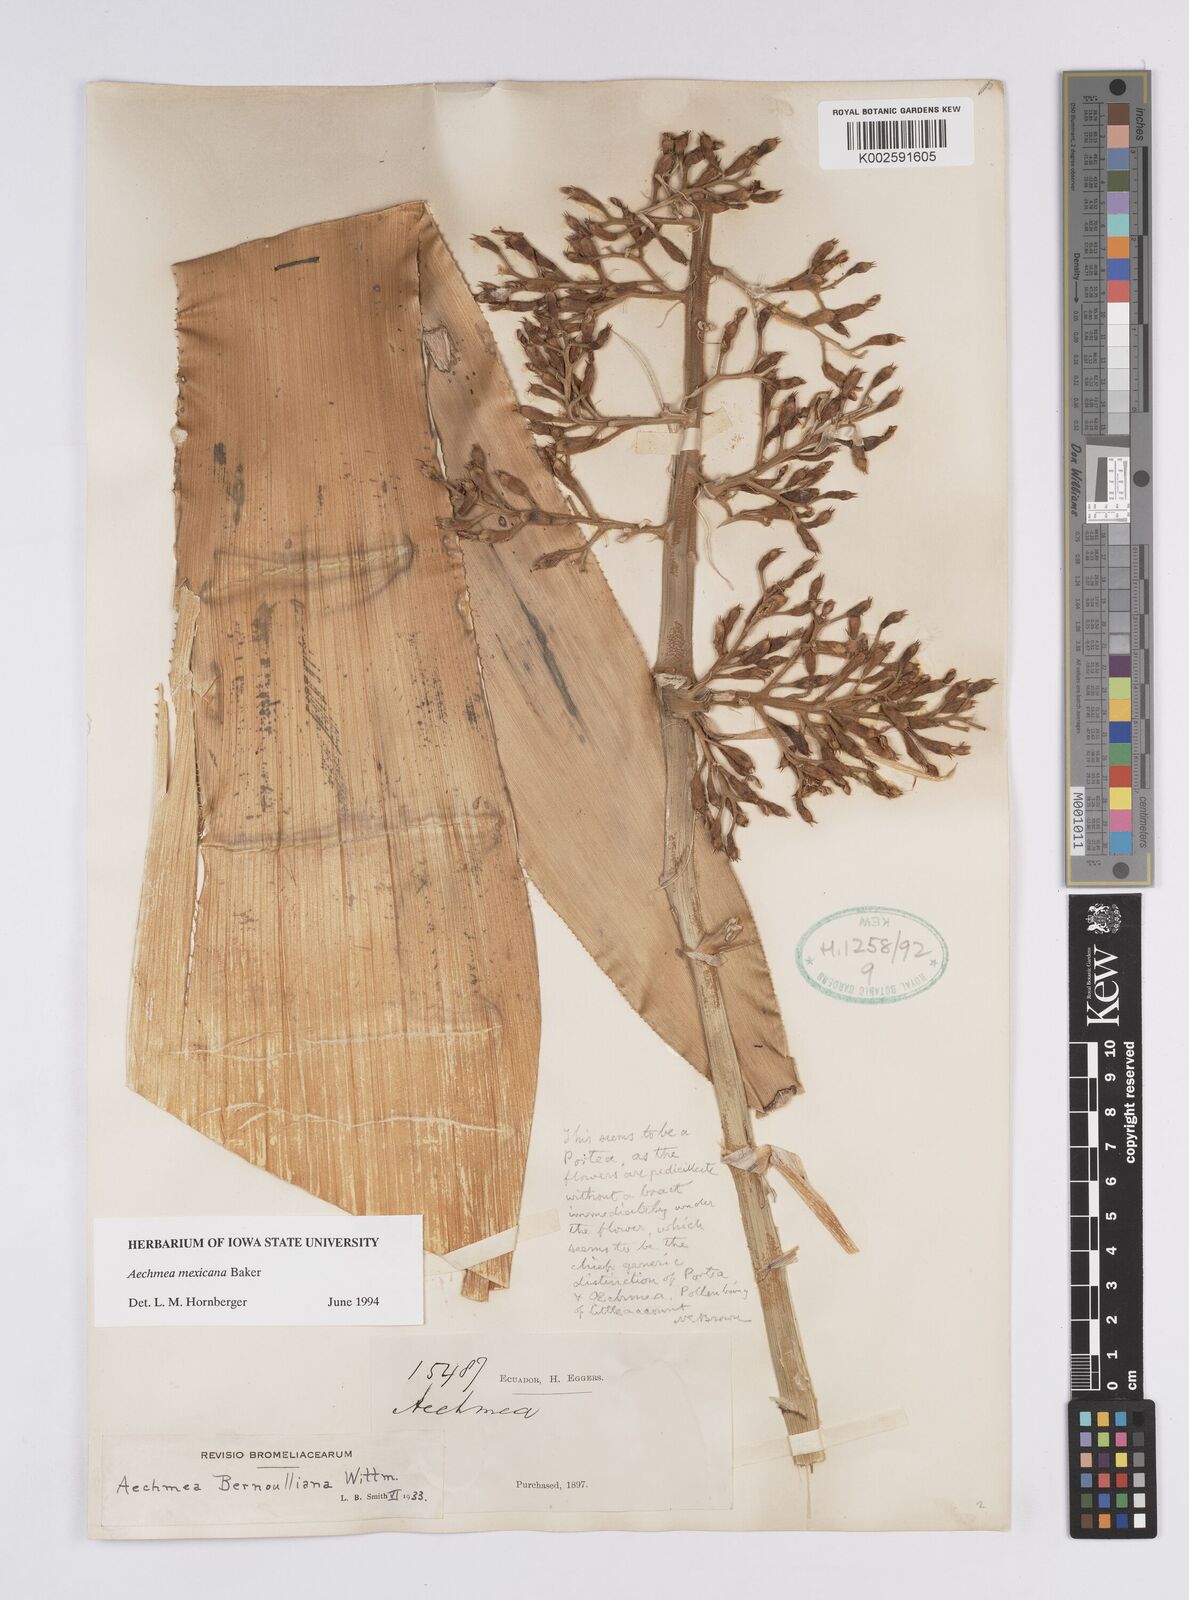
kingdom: Plantae
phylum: Tracheophyta
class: Liliopsida
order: Poales
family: Bromeliaceae
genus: Aechmea
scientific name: Aechmea mexicana
